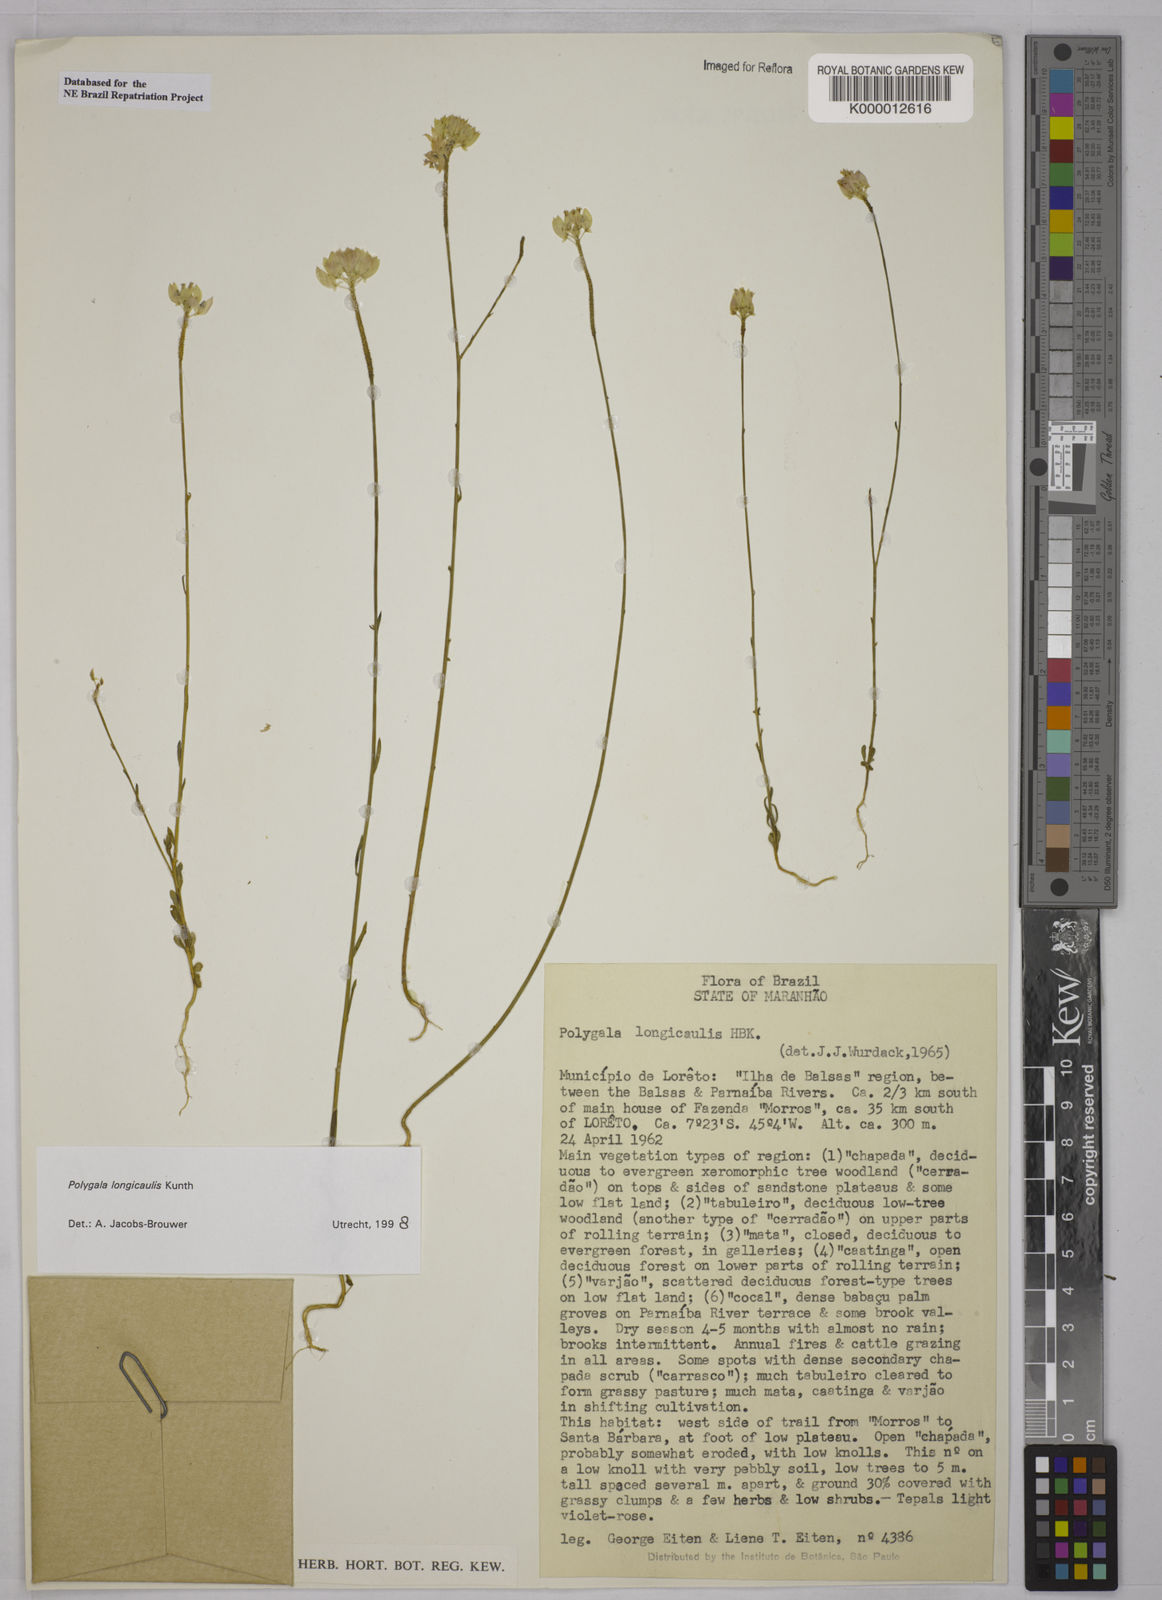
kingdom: Plantae
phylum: Tracheophyta
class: Magnoliopsida
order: Fabales
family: Polygalaceae
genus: Polygala
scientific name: Polygala longicaulis
